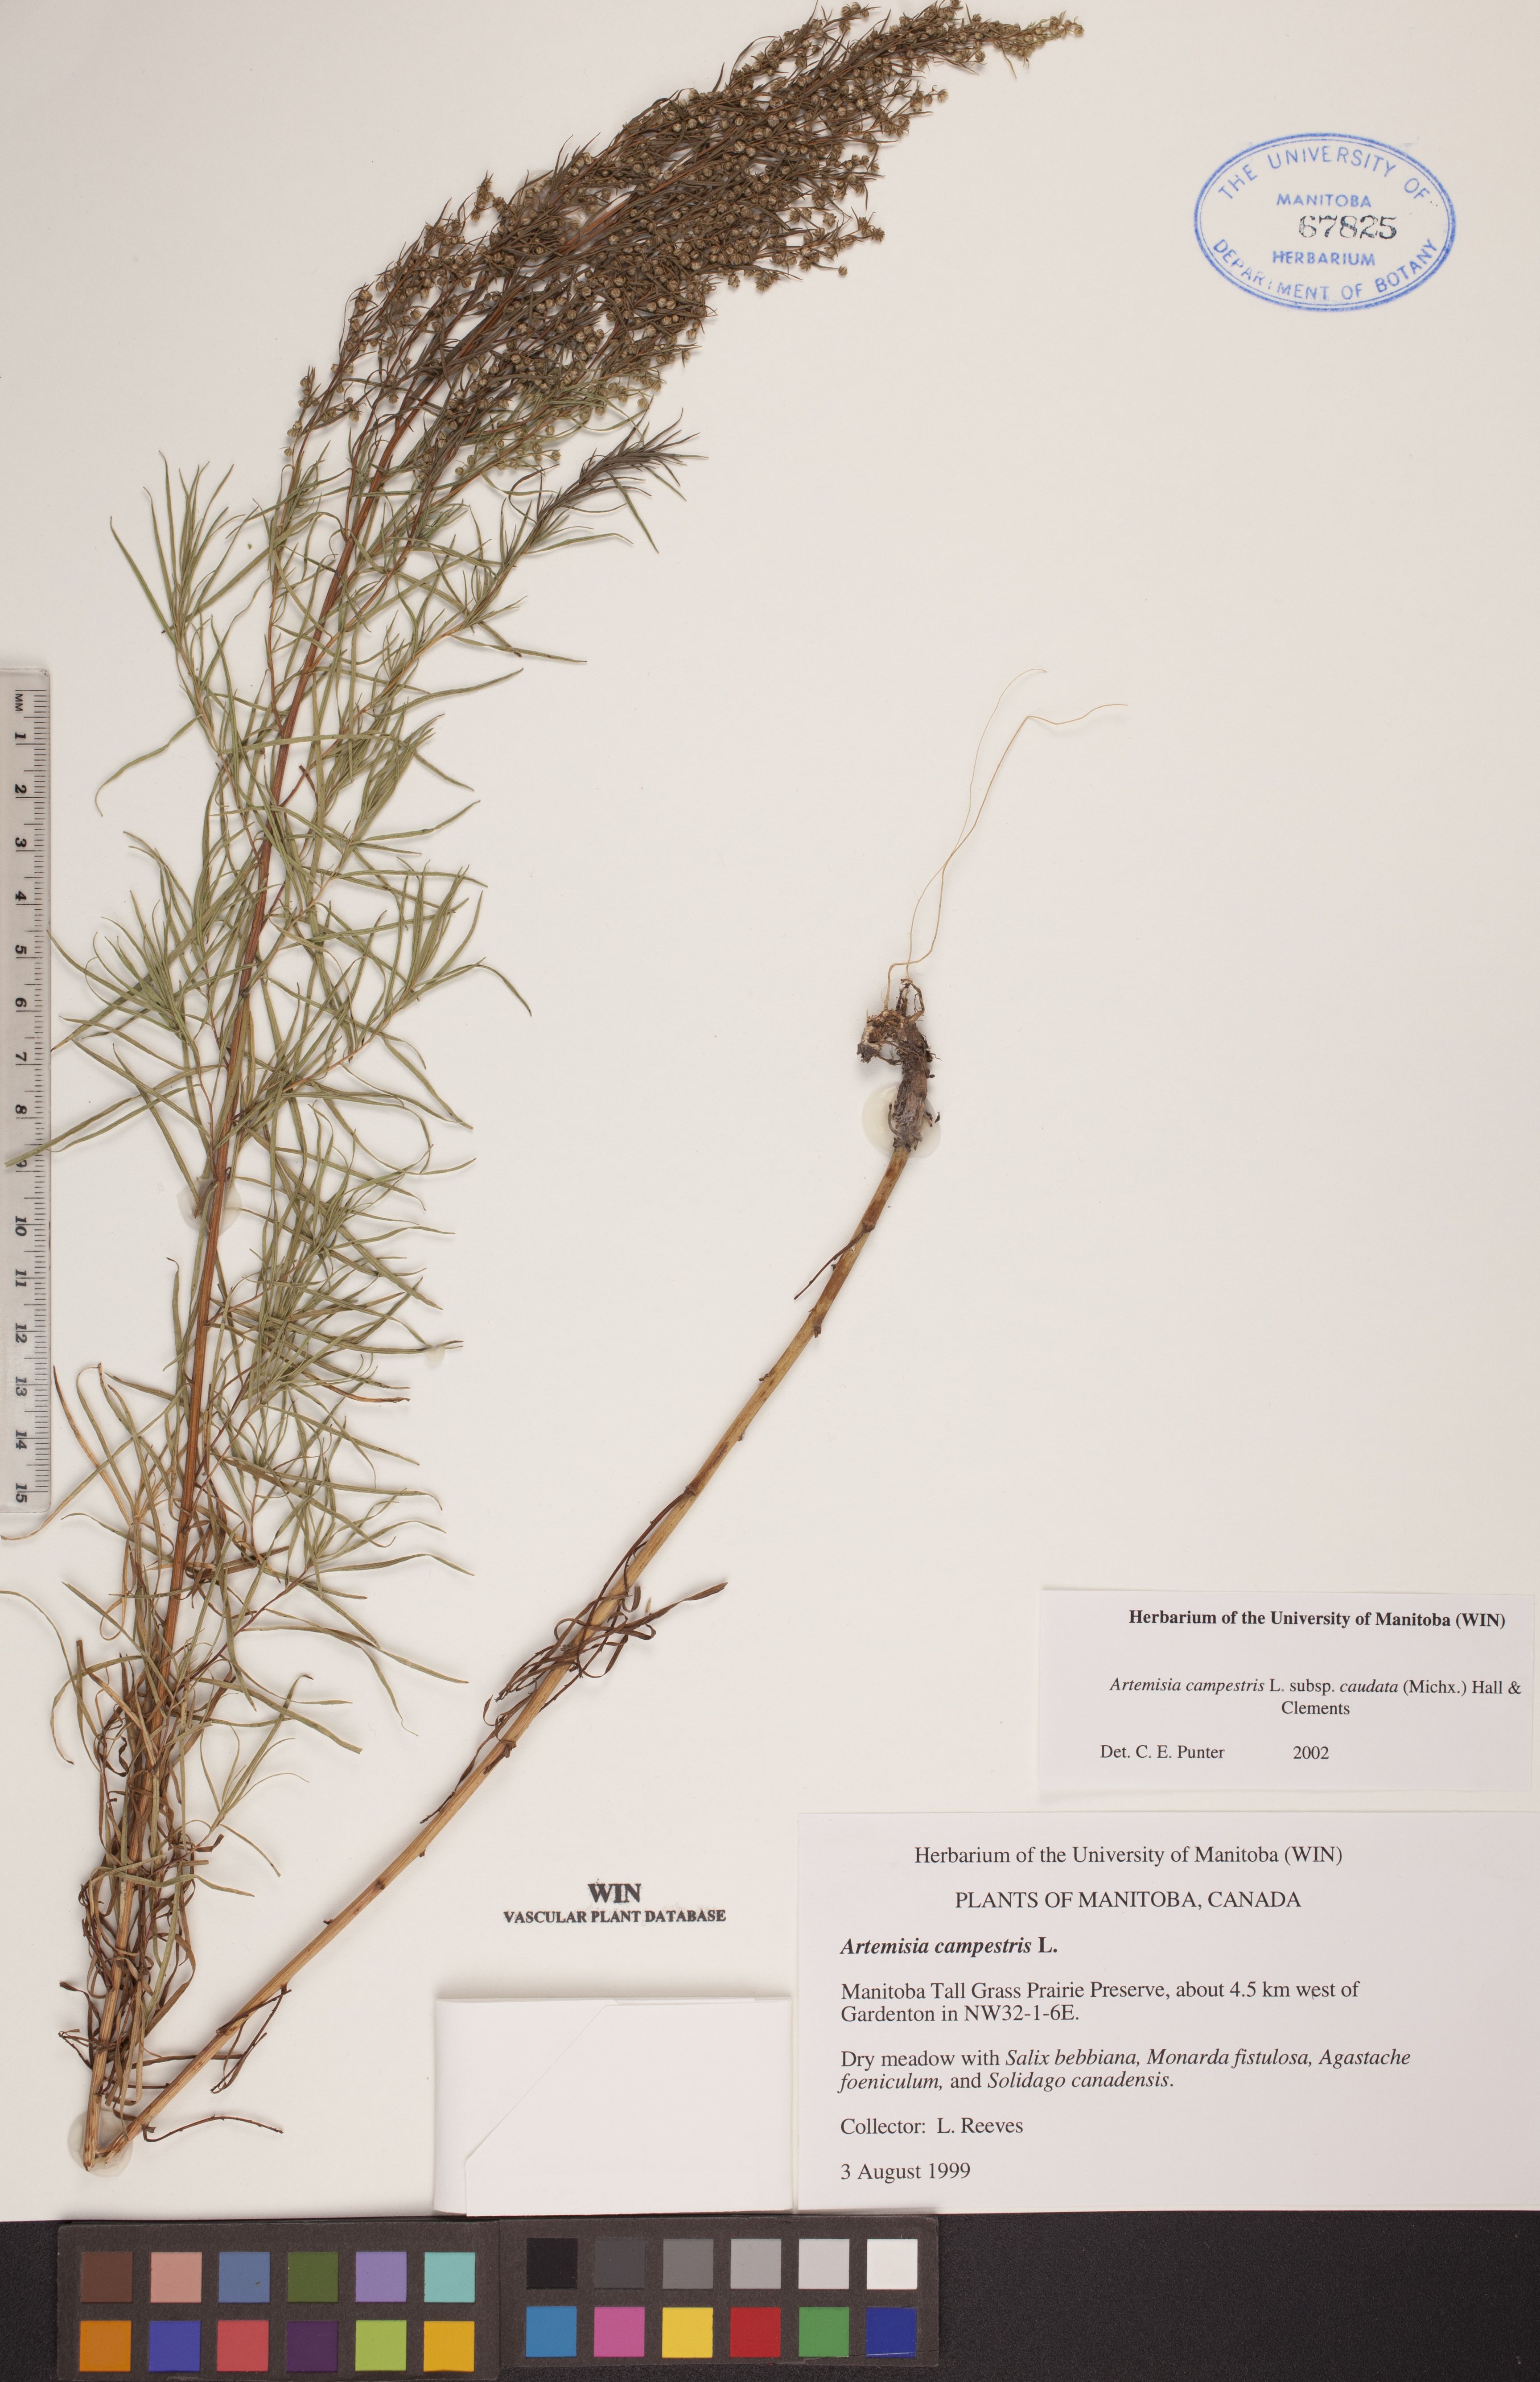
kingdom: Plantae
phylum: Tracheophyta
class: Magnoliopsida
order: Asterales
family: Asteraceae
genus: Artemisia
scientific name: Artemisia campestris
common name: Field wormwood
